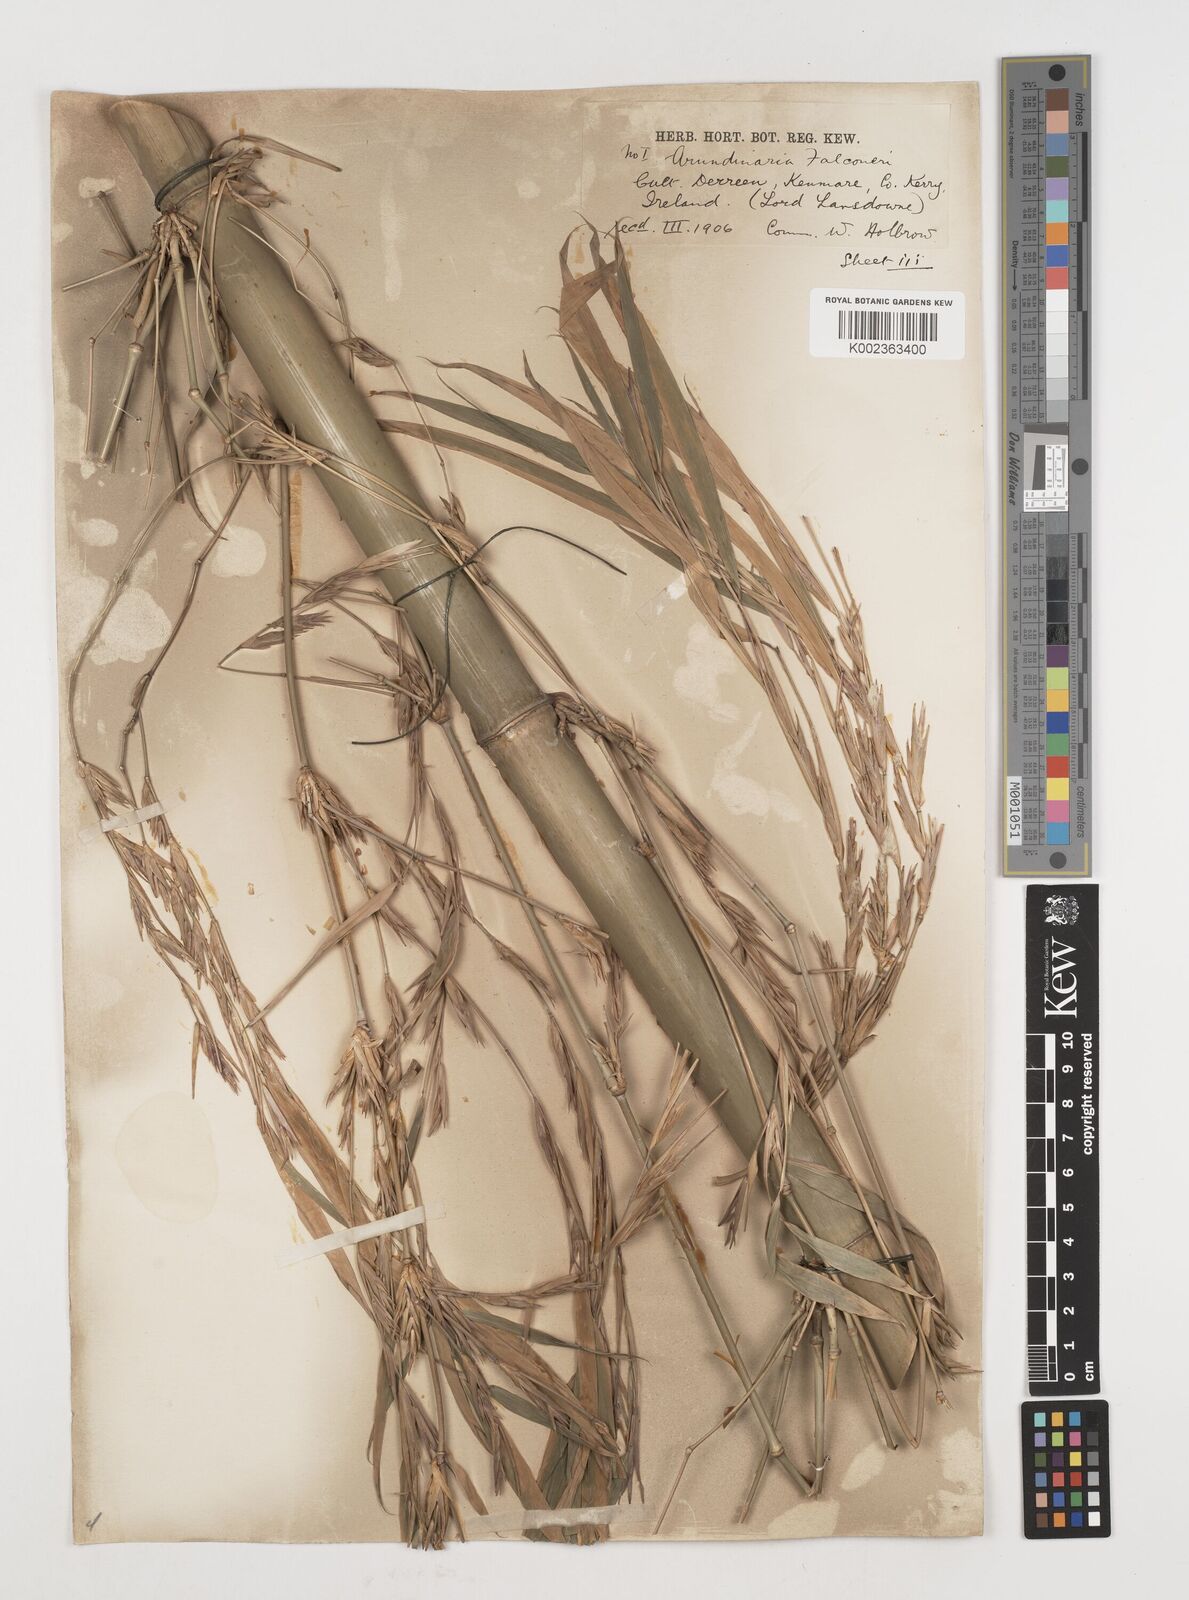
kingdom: Plantae
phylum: Tracheophyta
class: Liliopsida
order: Poales
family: Poaceae
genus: Himalayacalamus
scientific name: Himalayacalamus falconeri
